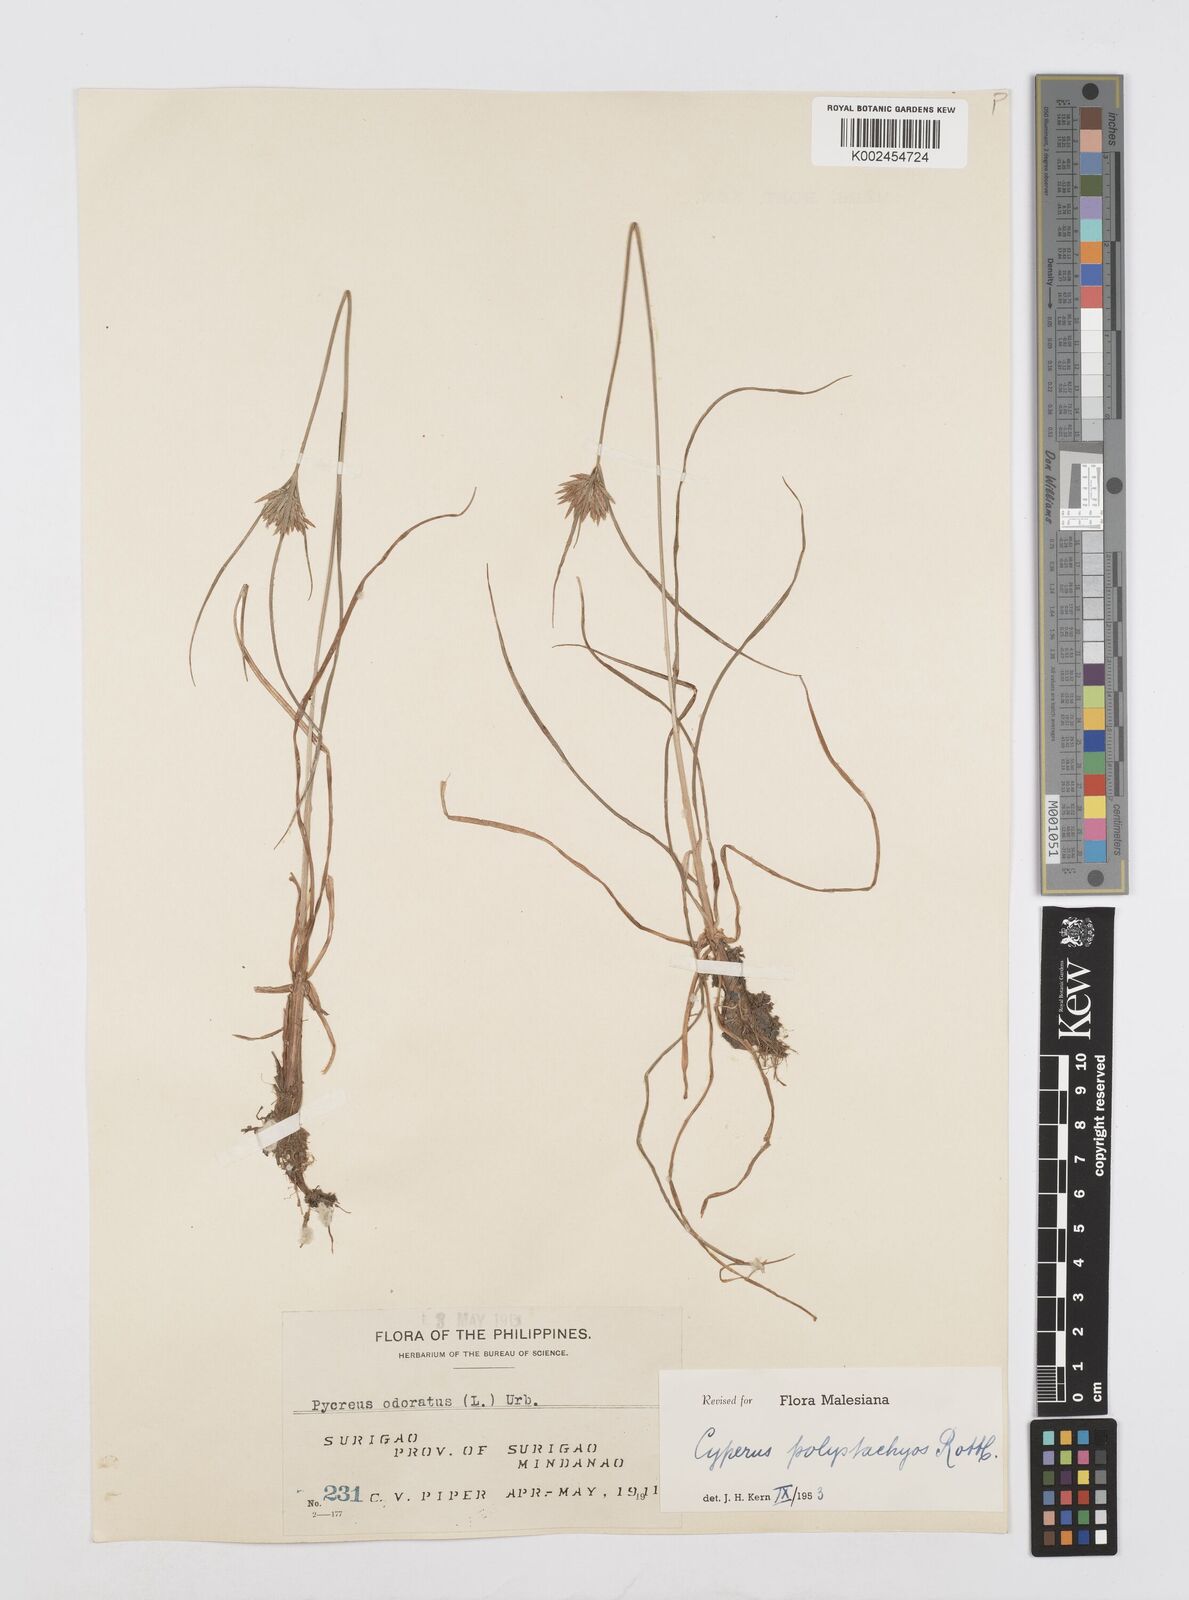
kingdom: Plantae
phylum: Tracheophyta
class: Liliopsida
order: Poales
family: Cyperaceae
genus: Cyperus
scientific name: Cyperus polystachyos
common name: Bunchy flat sedge
